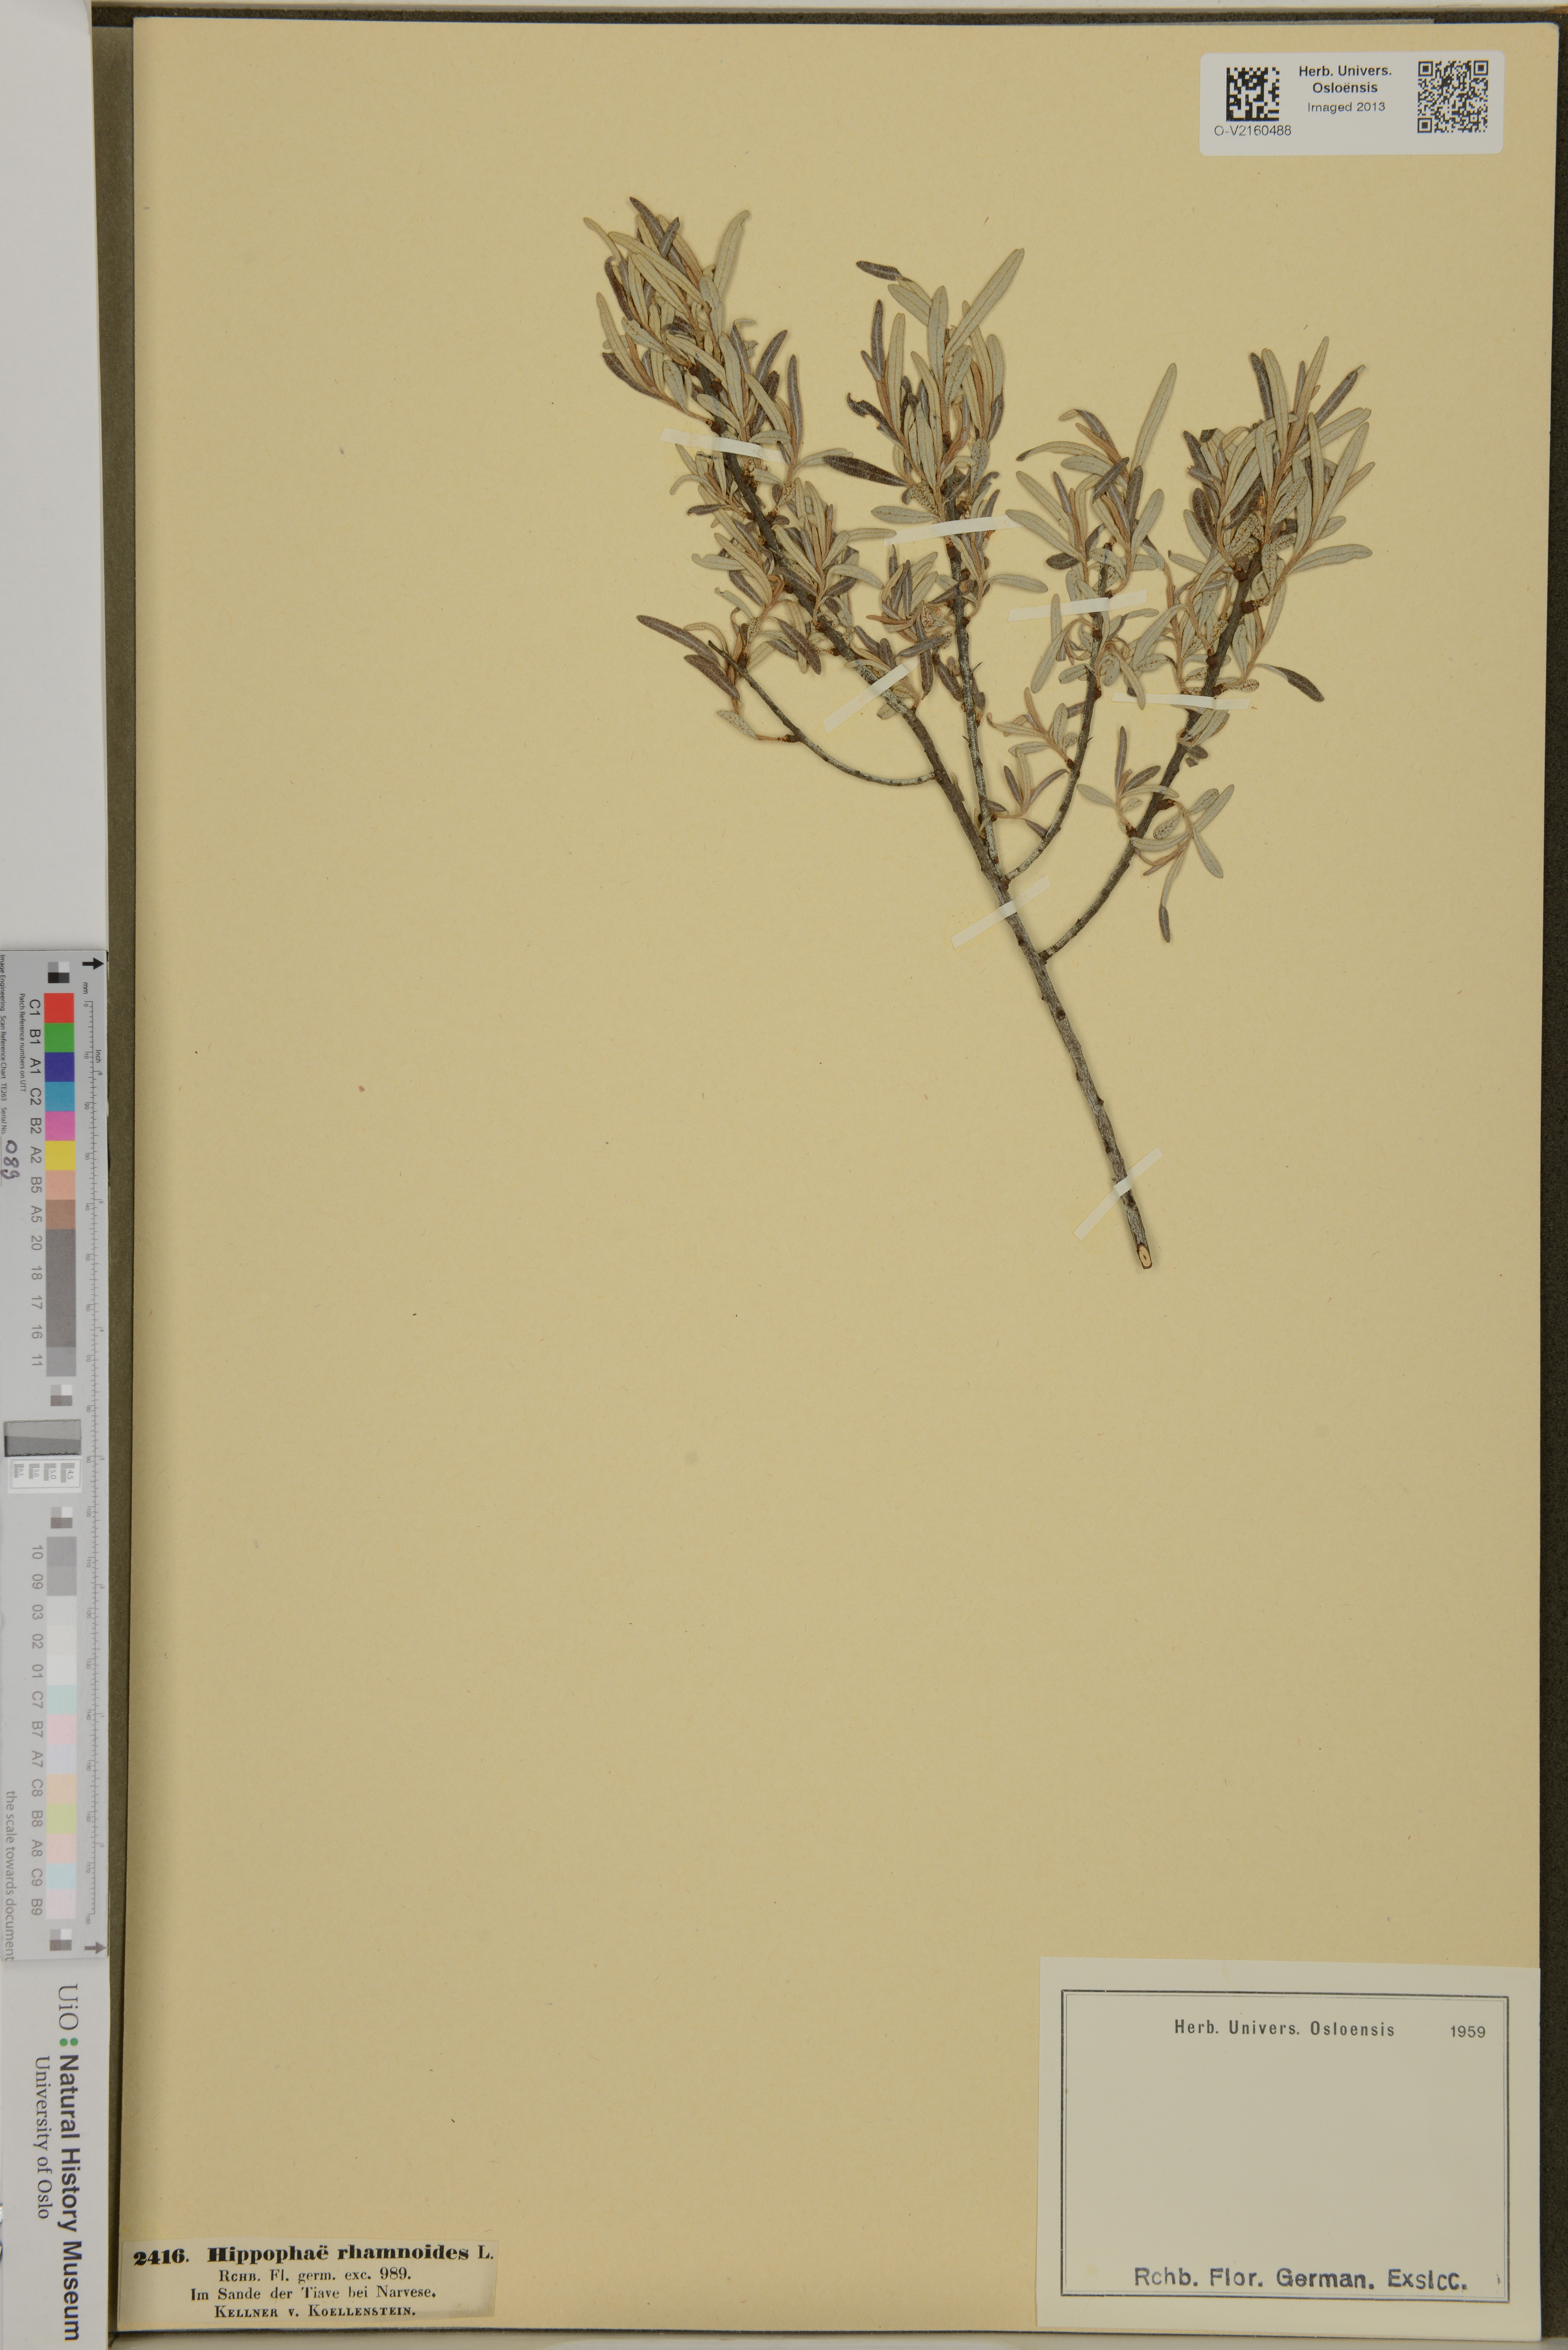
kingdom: Plantae
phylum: Tracheophyta
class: Magnoliopsida
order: Rosales
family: Elaeagnaceae
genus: Hippophae
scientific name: Hippophae rhamnoides
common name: Sea-buckthorn
